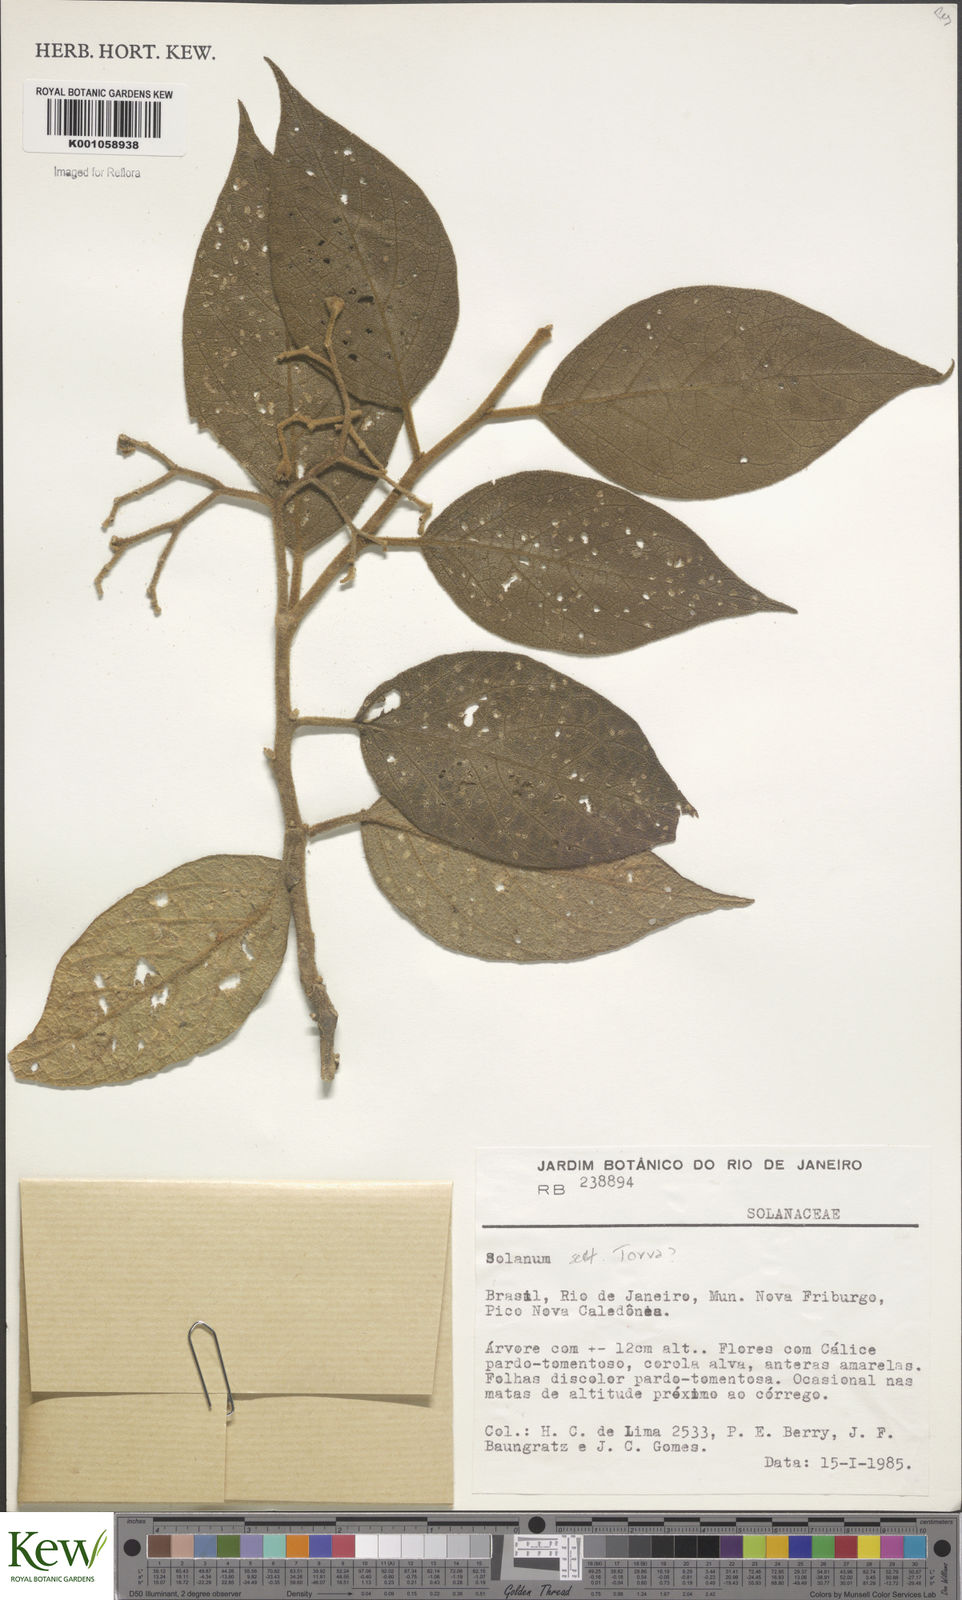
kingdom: Plantae
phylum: Tracheophyta
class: Magnoliopsida
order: Solanales
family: Solanaceae
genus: Solanum
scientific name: Solanum
